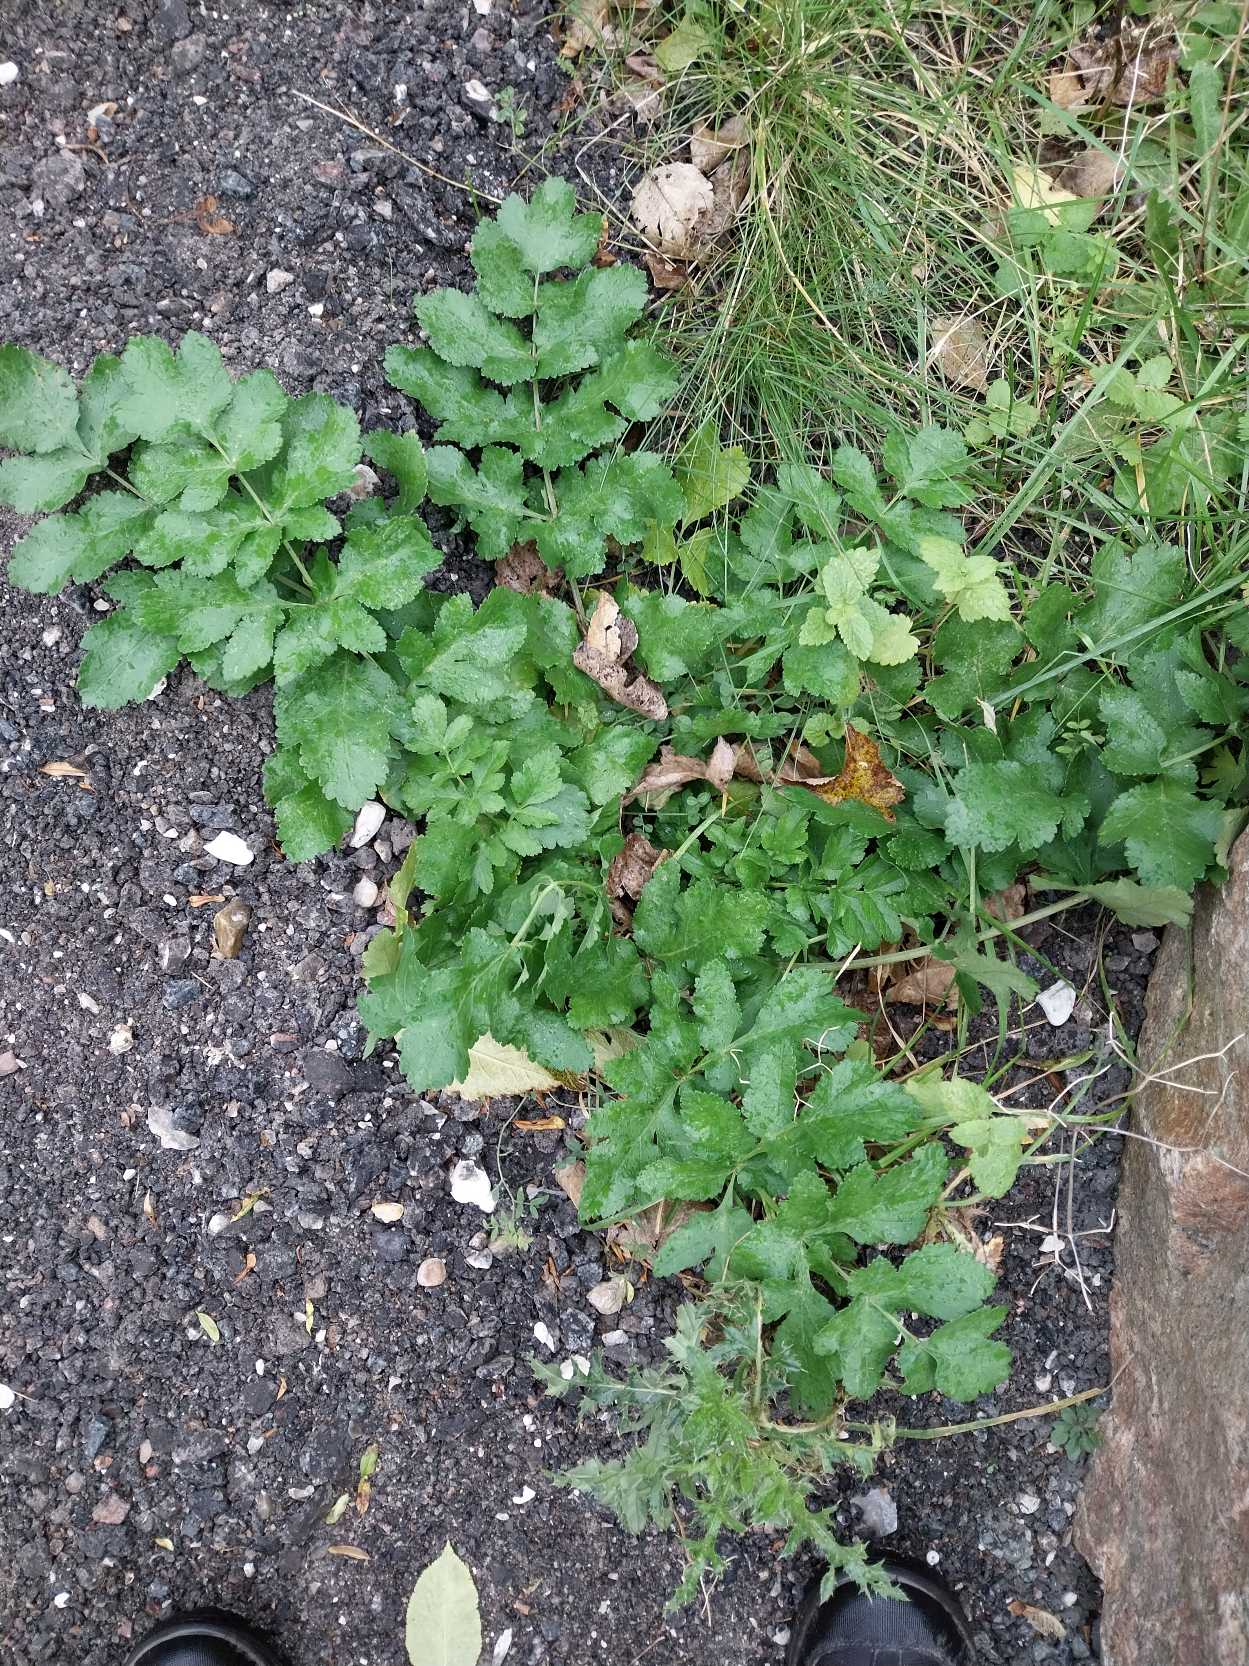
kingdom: Plantae
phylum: Tracheophyta
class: Magnoliopsida
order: Apiales
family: Apiaceae
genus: Pastinaca
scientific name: Pastinaca sativa
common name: Pastinak
